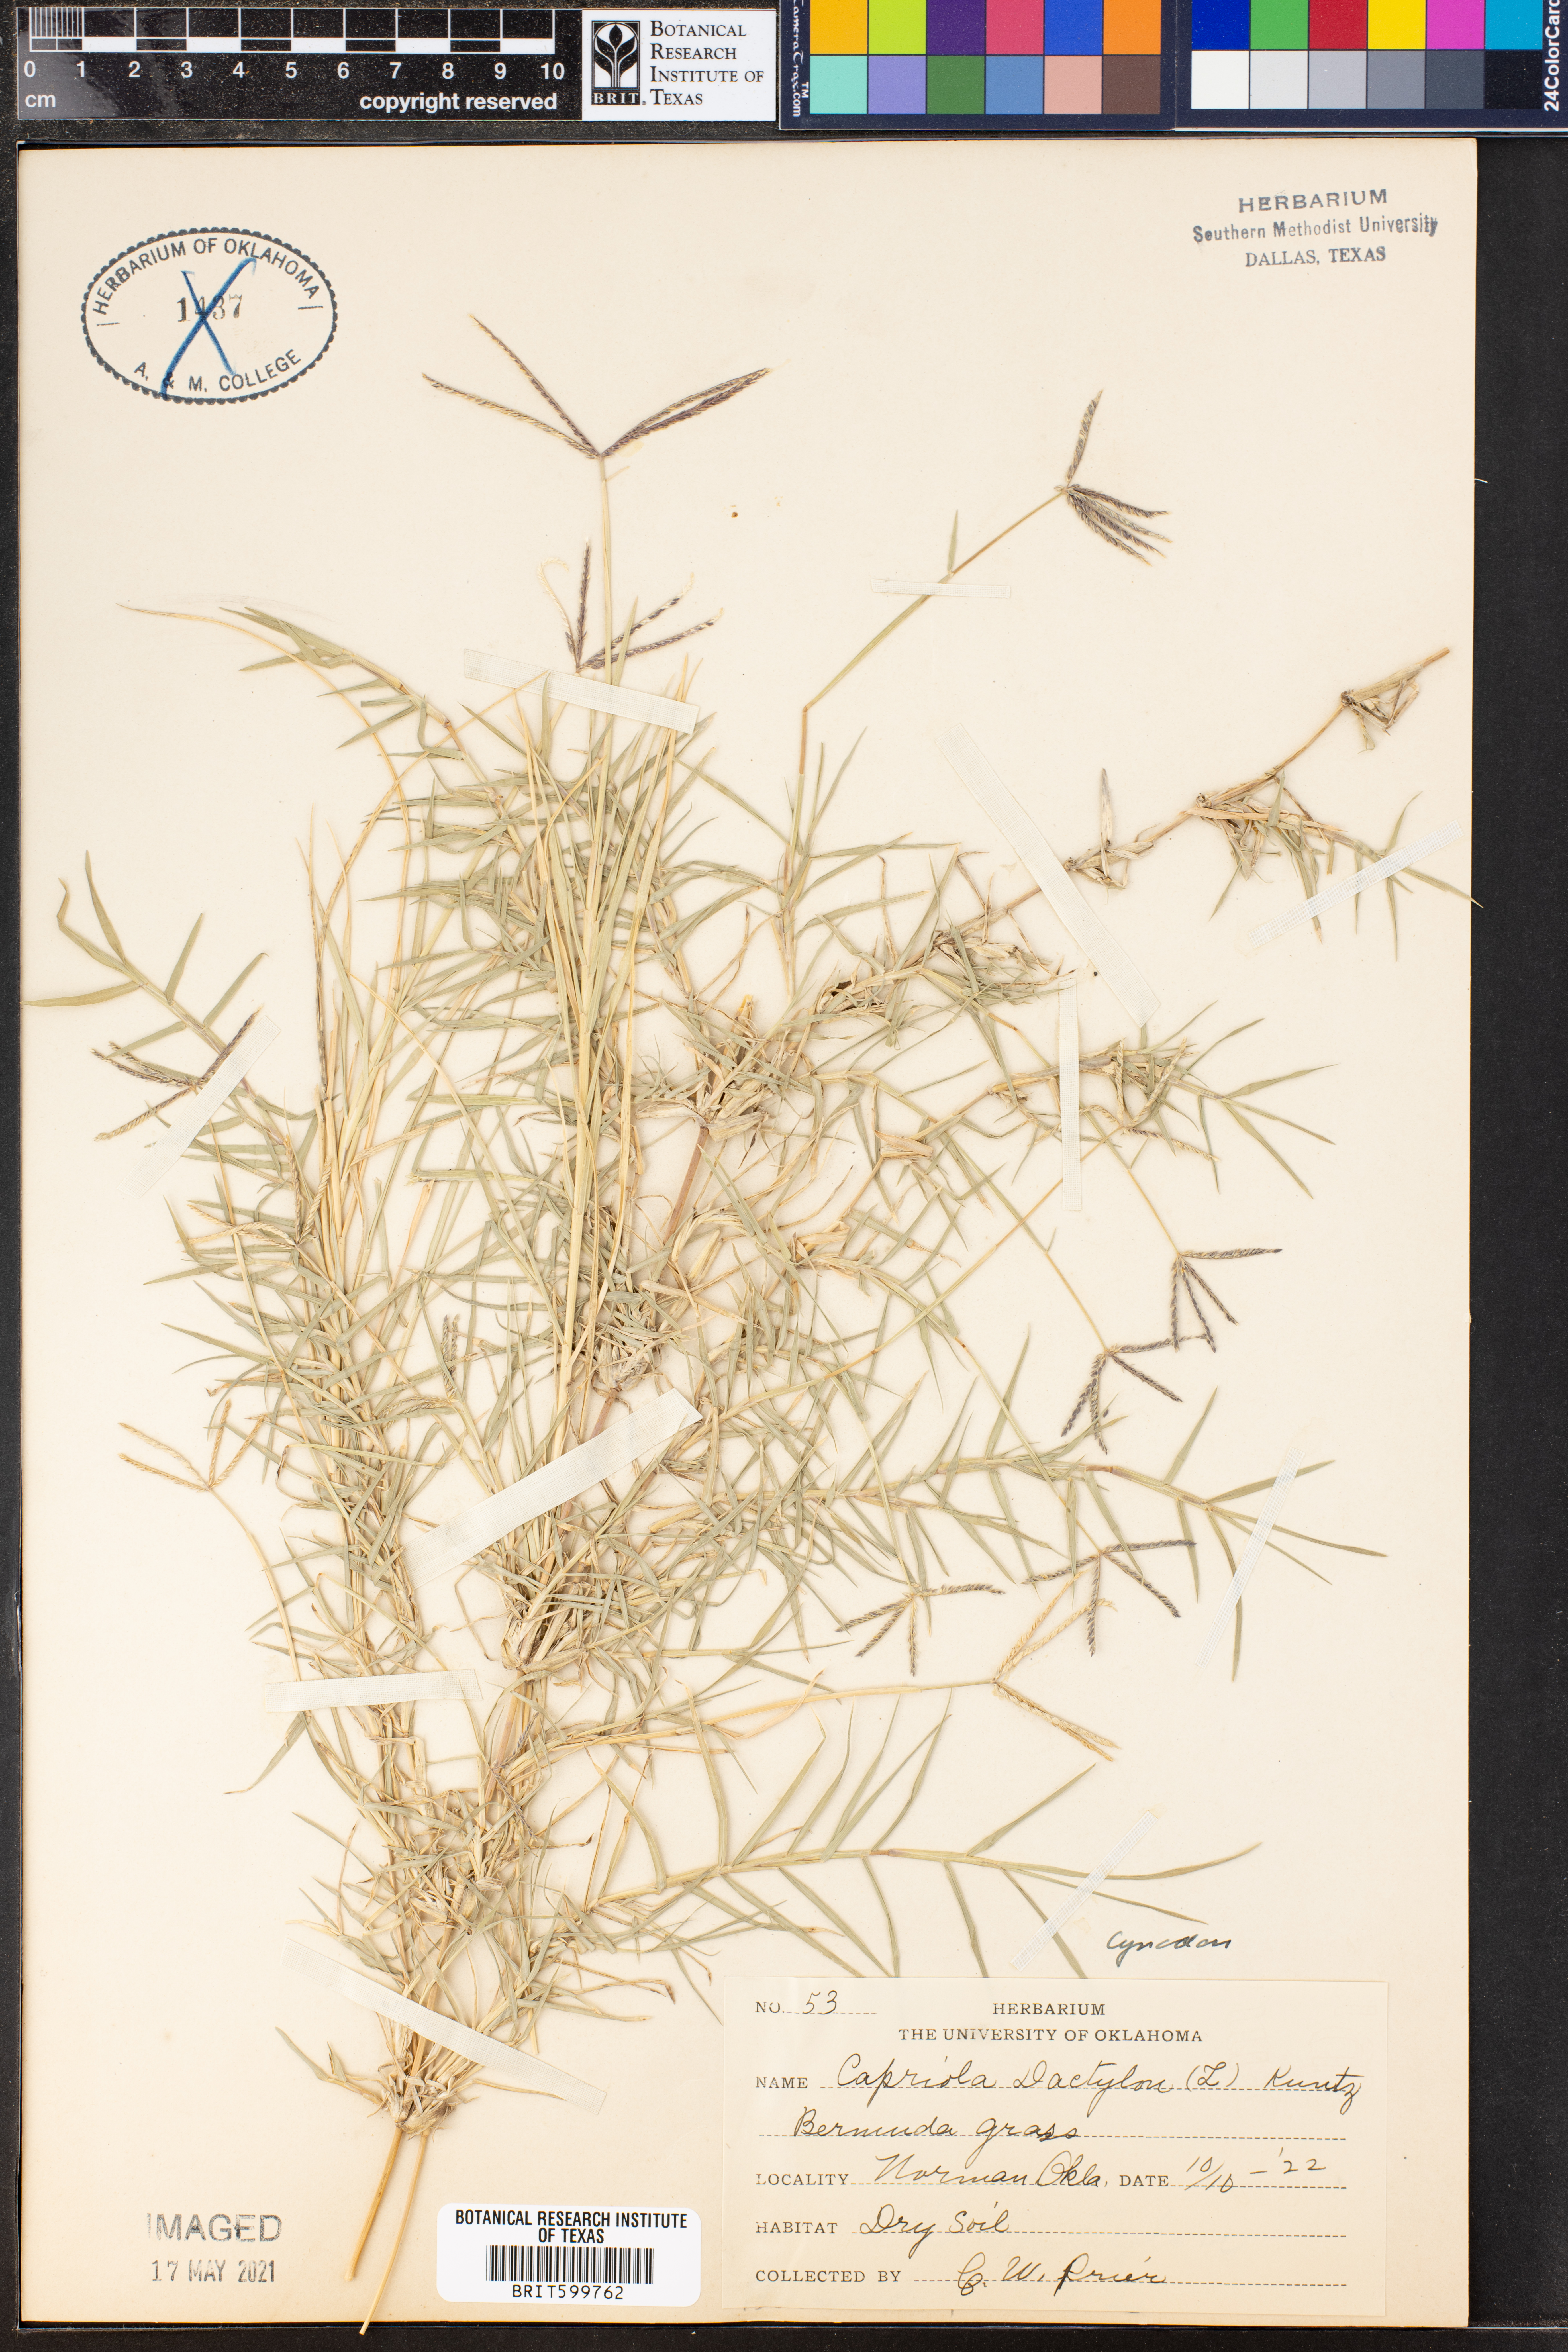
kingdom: Plantae
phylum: Tracheophyta
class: Liliopsida
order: Poales
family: Poaceae
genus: Cynodon
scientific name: Cynodon dactylon
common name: Bermuda grass
